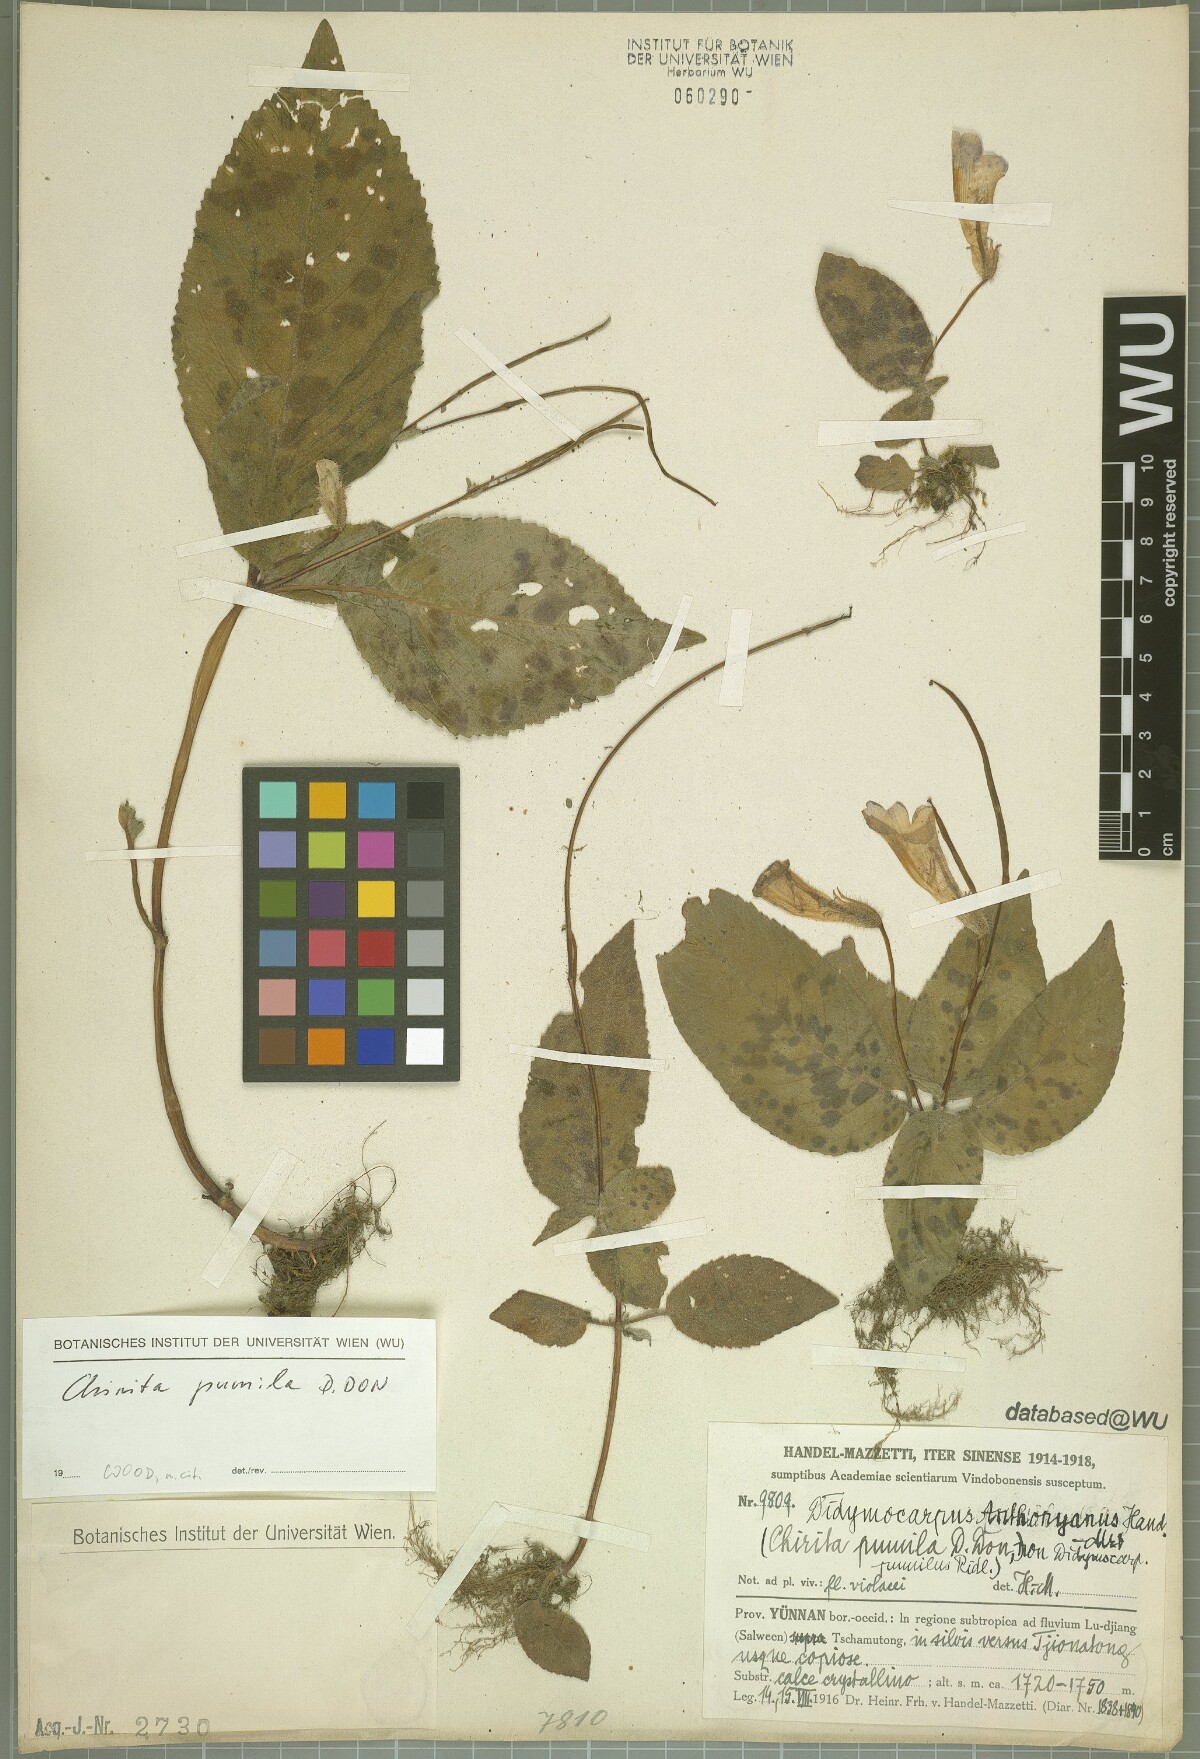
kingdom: Plantae
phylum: Tracheophyta
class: Magnoliopsida
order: Lamiales
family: Gesneriaceae
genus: Henckelia
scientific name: Henckelia pumila
